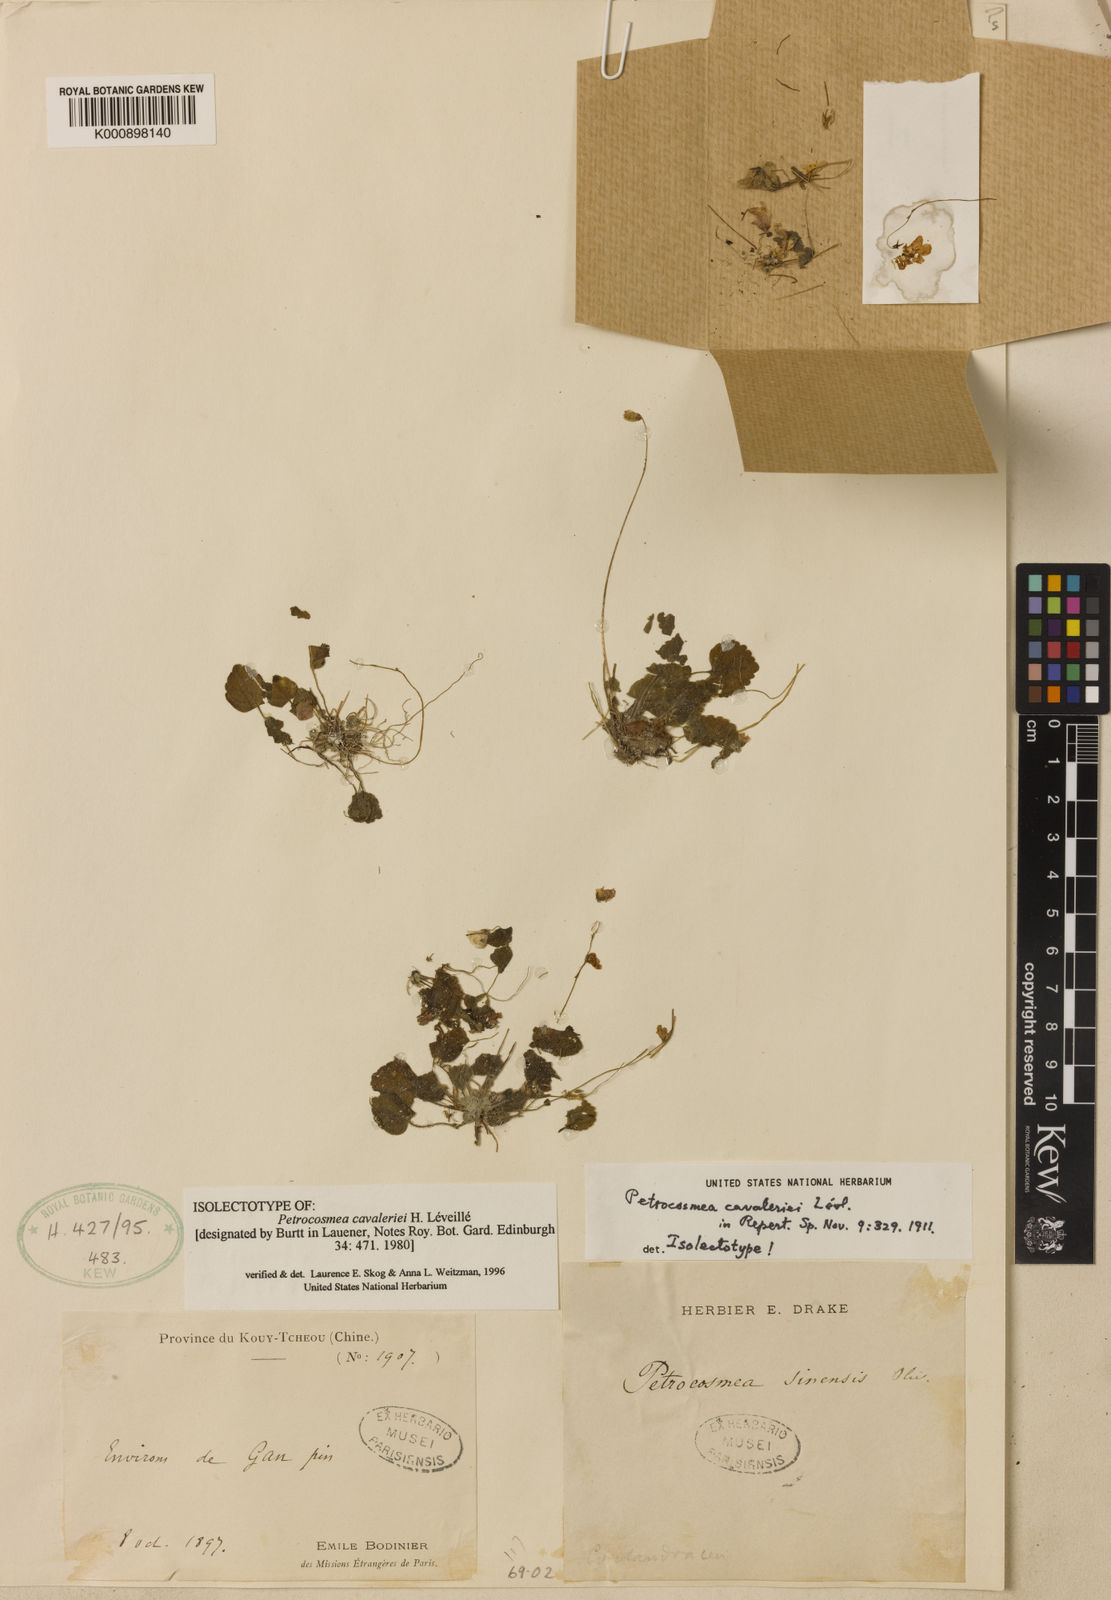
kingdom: Plantae
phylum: Tracheophyta
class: Magnoliopsida
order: Lamiales
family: Gesneriaceae
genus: Petrocosmea
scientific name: Petrocosmea
